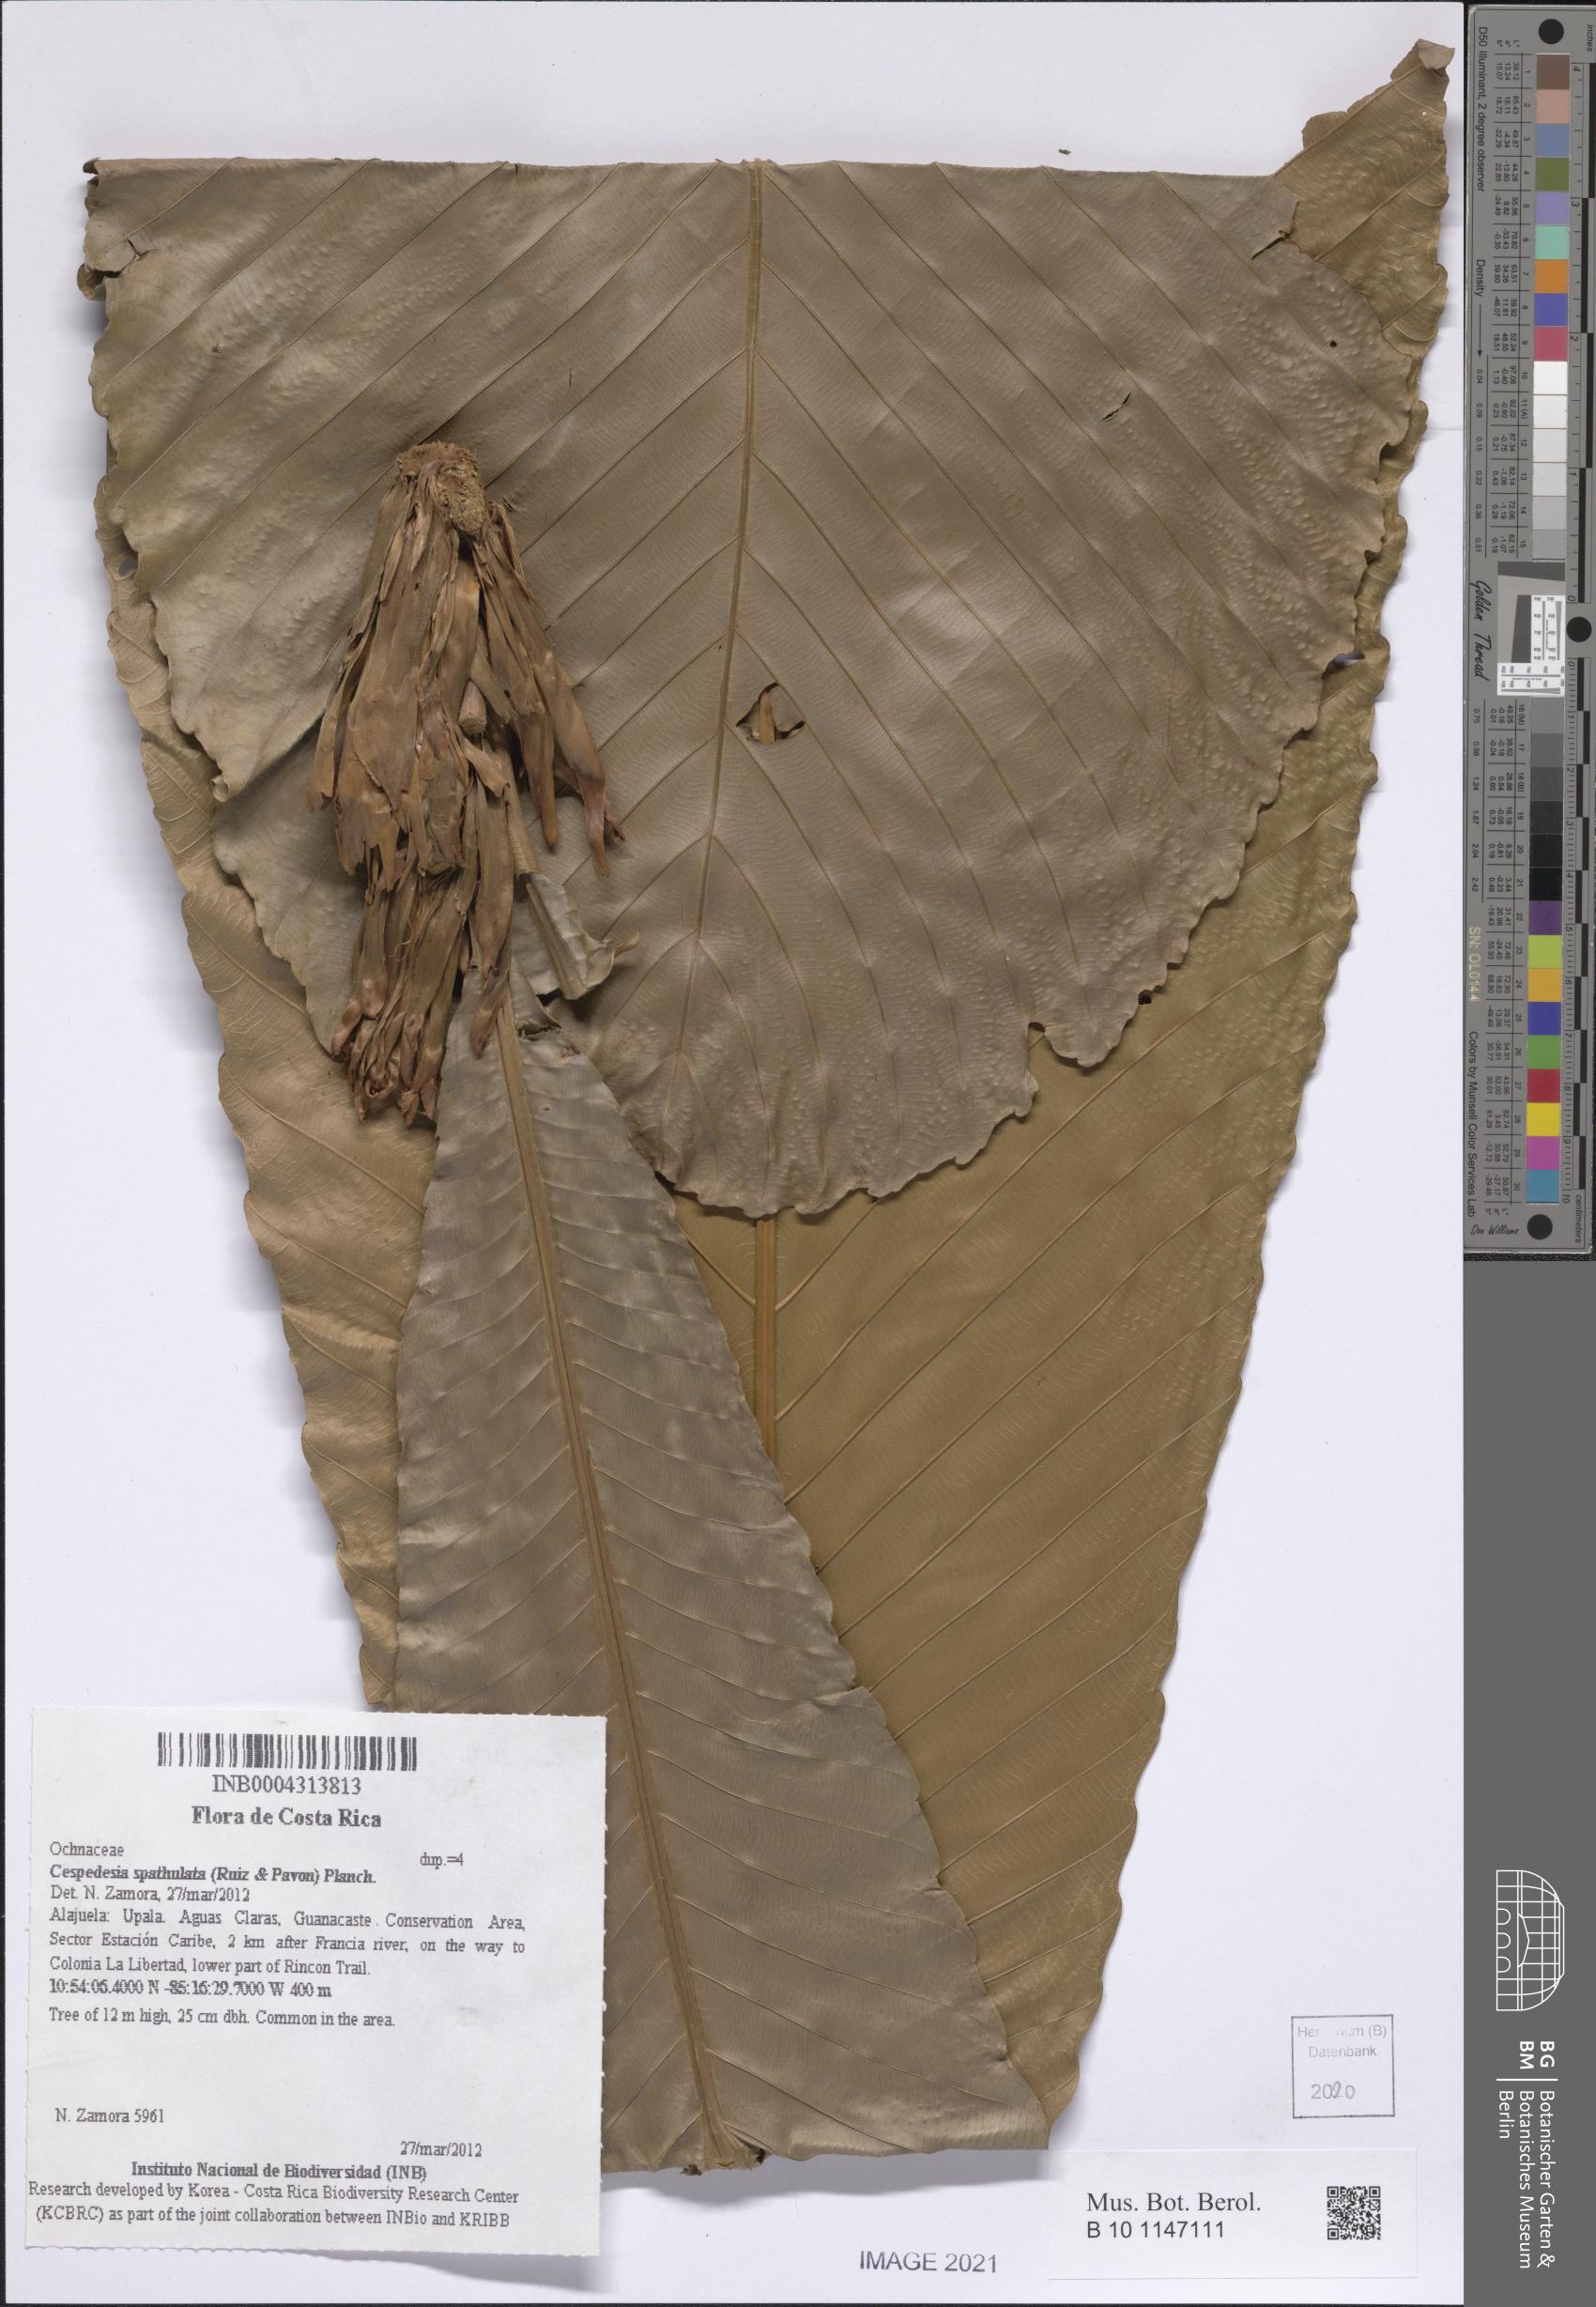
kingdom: Plantae
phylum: Tracheophyta
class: Magnoliopsida
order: Malpighiales
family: Ochnaceae
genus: Cespedesia
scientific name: Cespedesia spathulata
